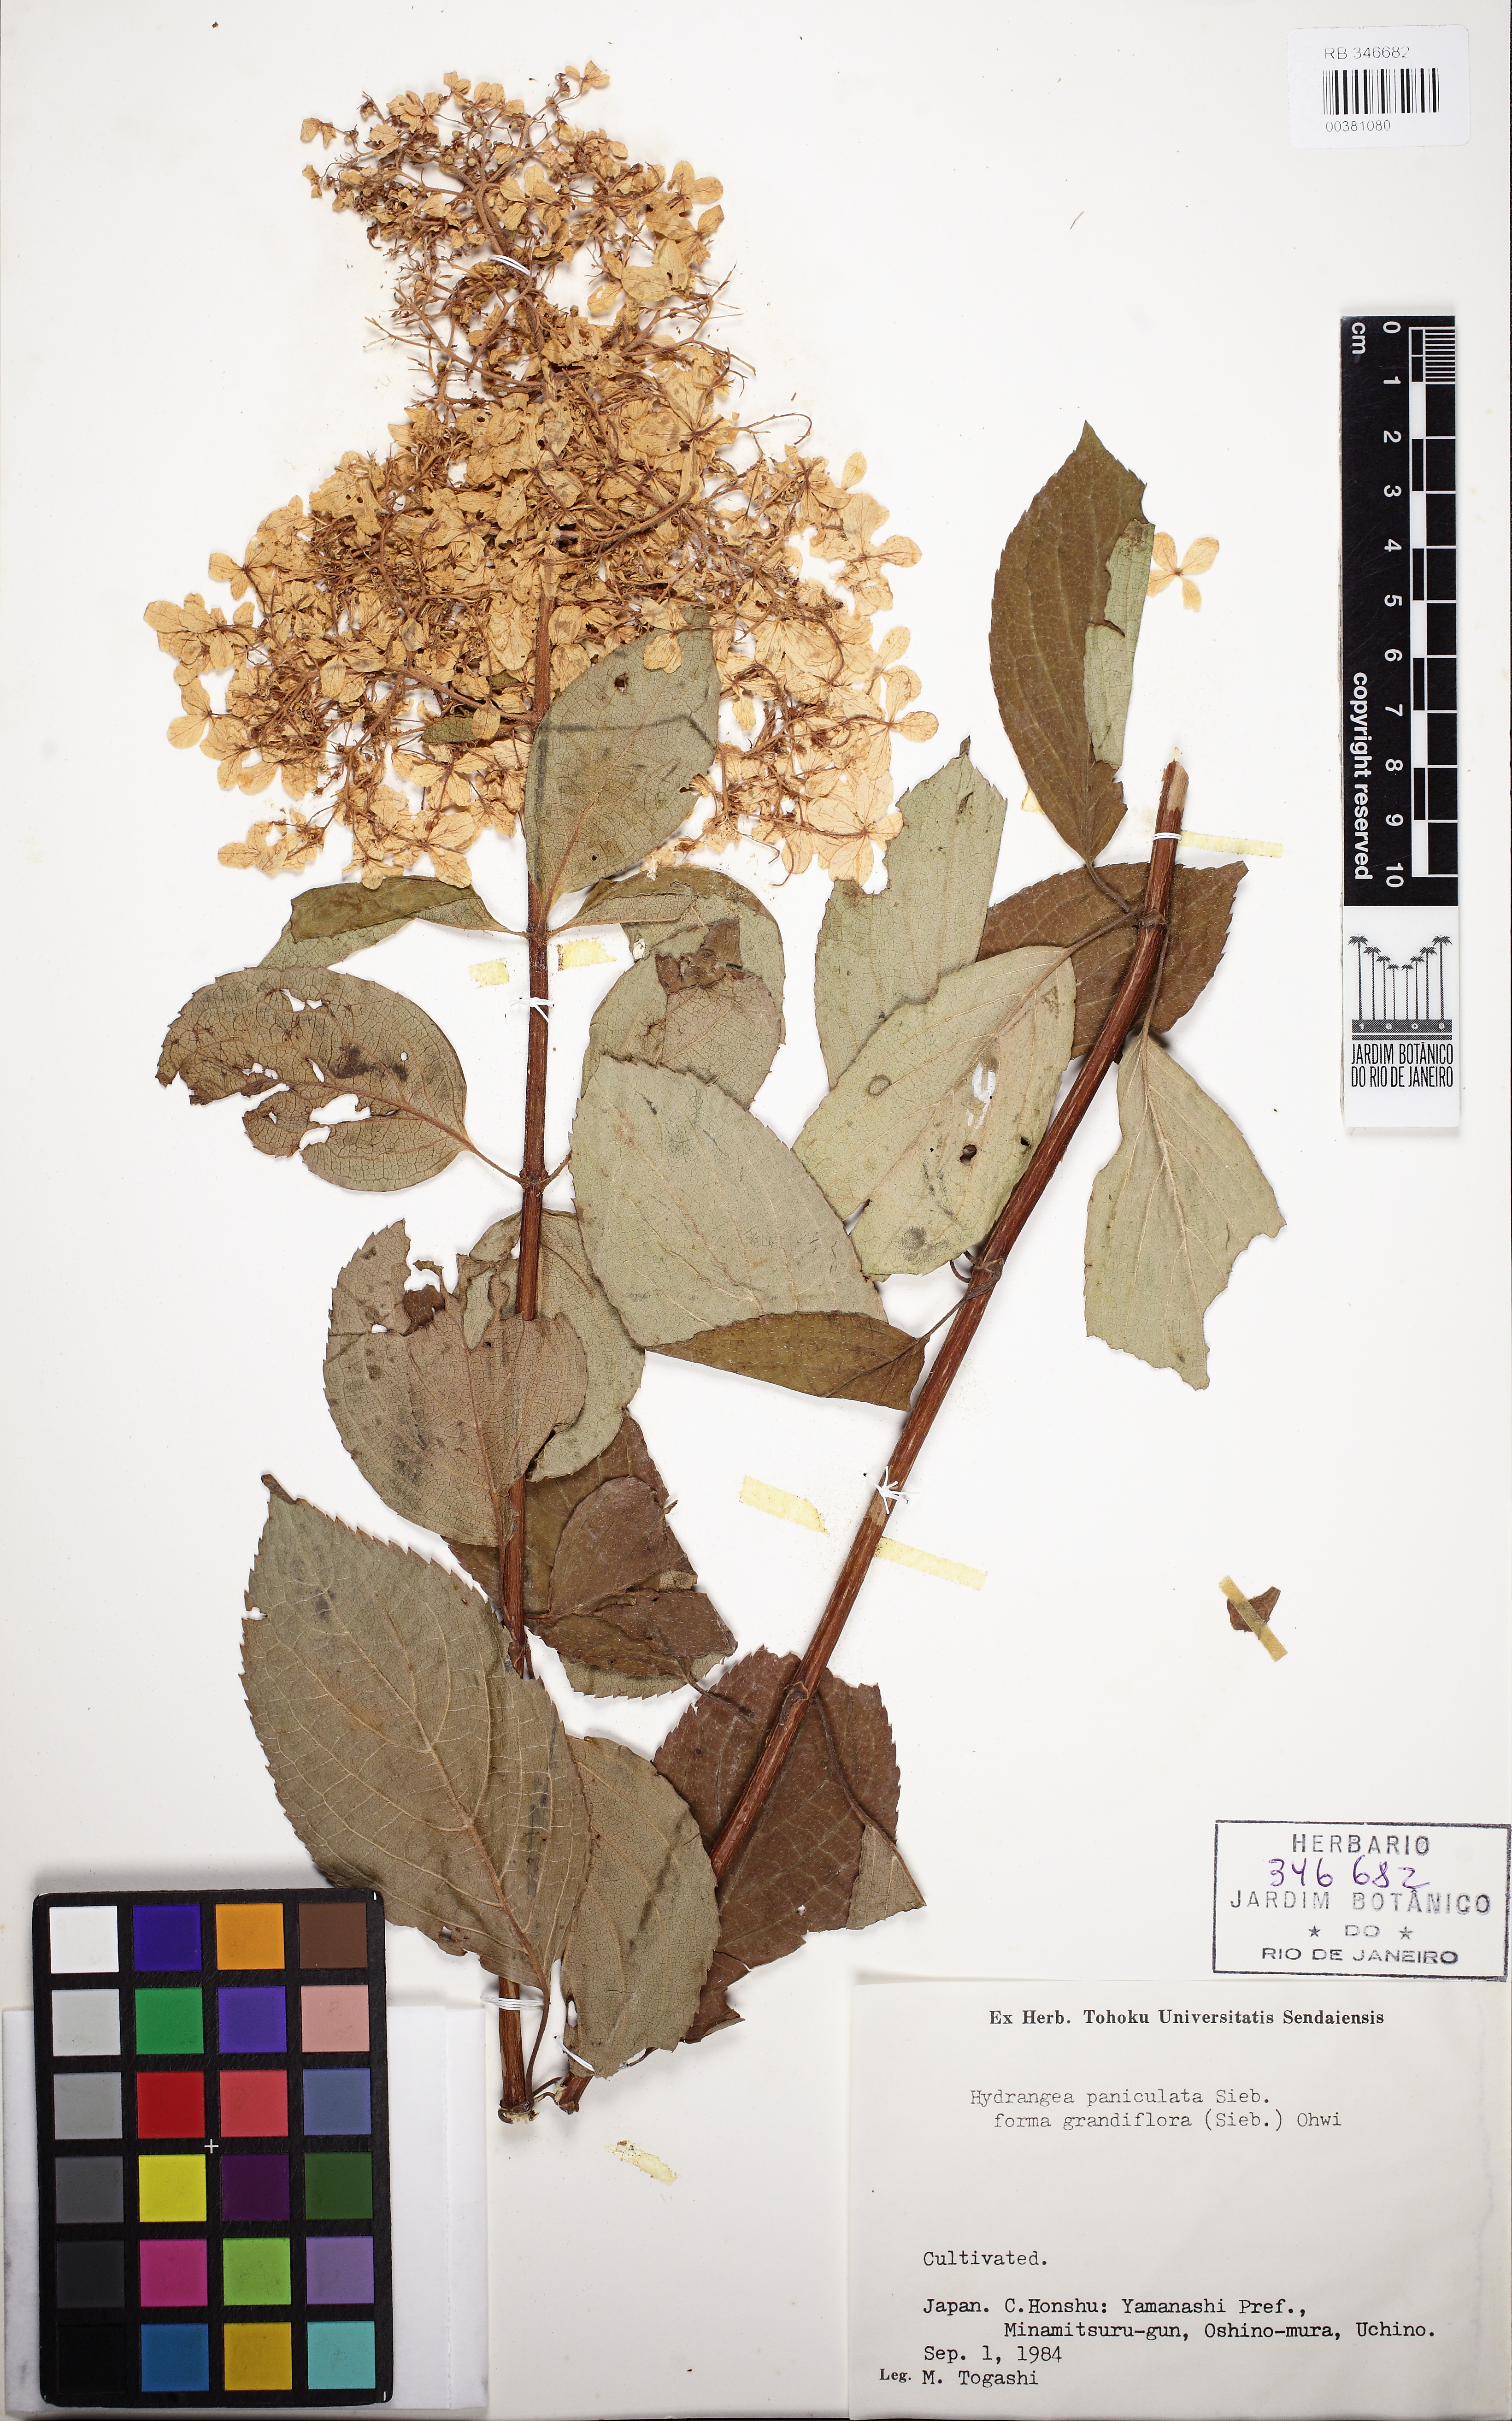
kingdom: Plantae
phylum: Tracheophyta
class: Magnoliopsida
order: Cornales
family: Hydrangeaceae
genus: Hydrangea
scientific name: Hydrangea paniculata
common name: Panicled hydrangea
